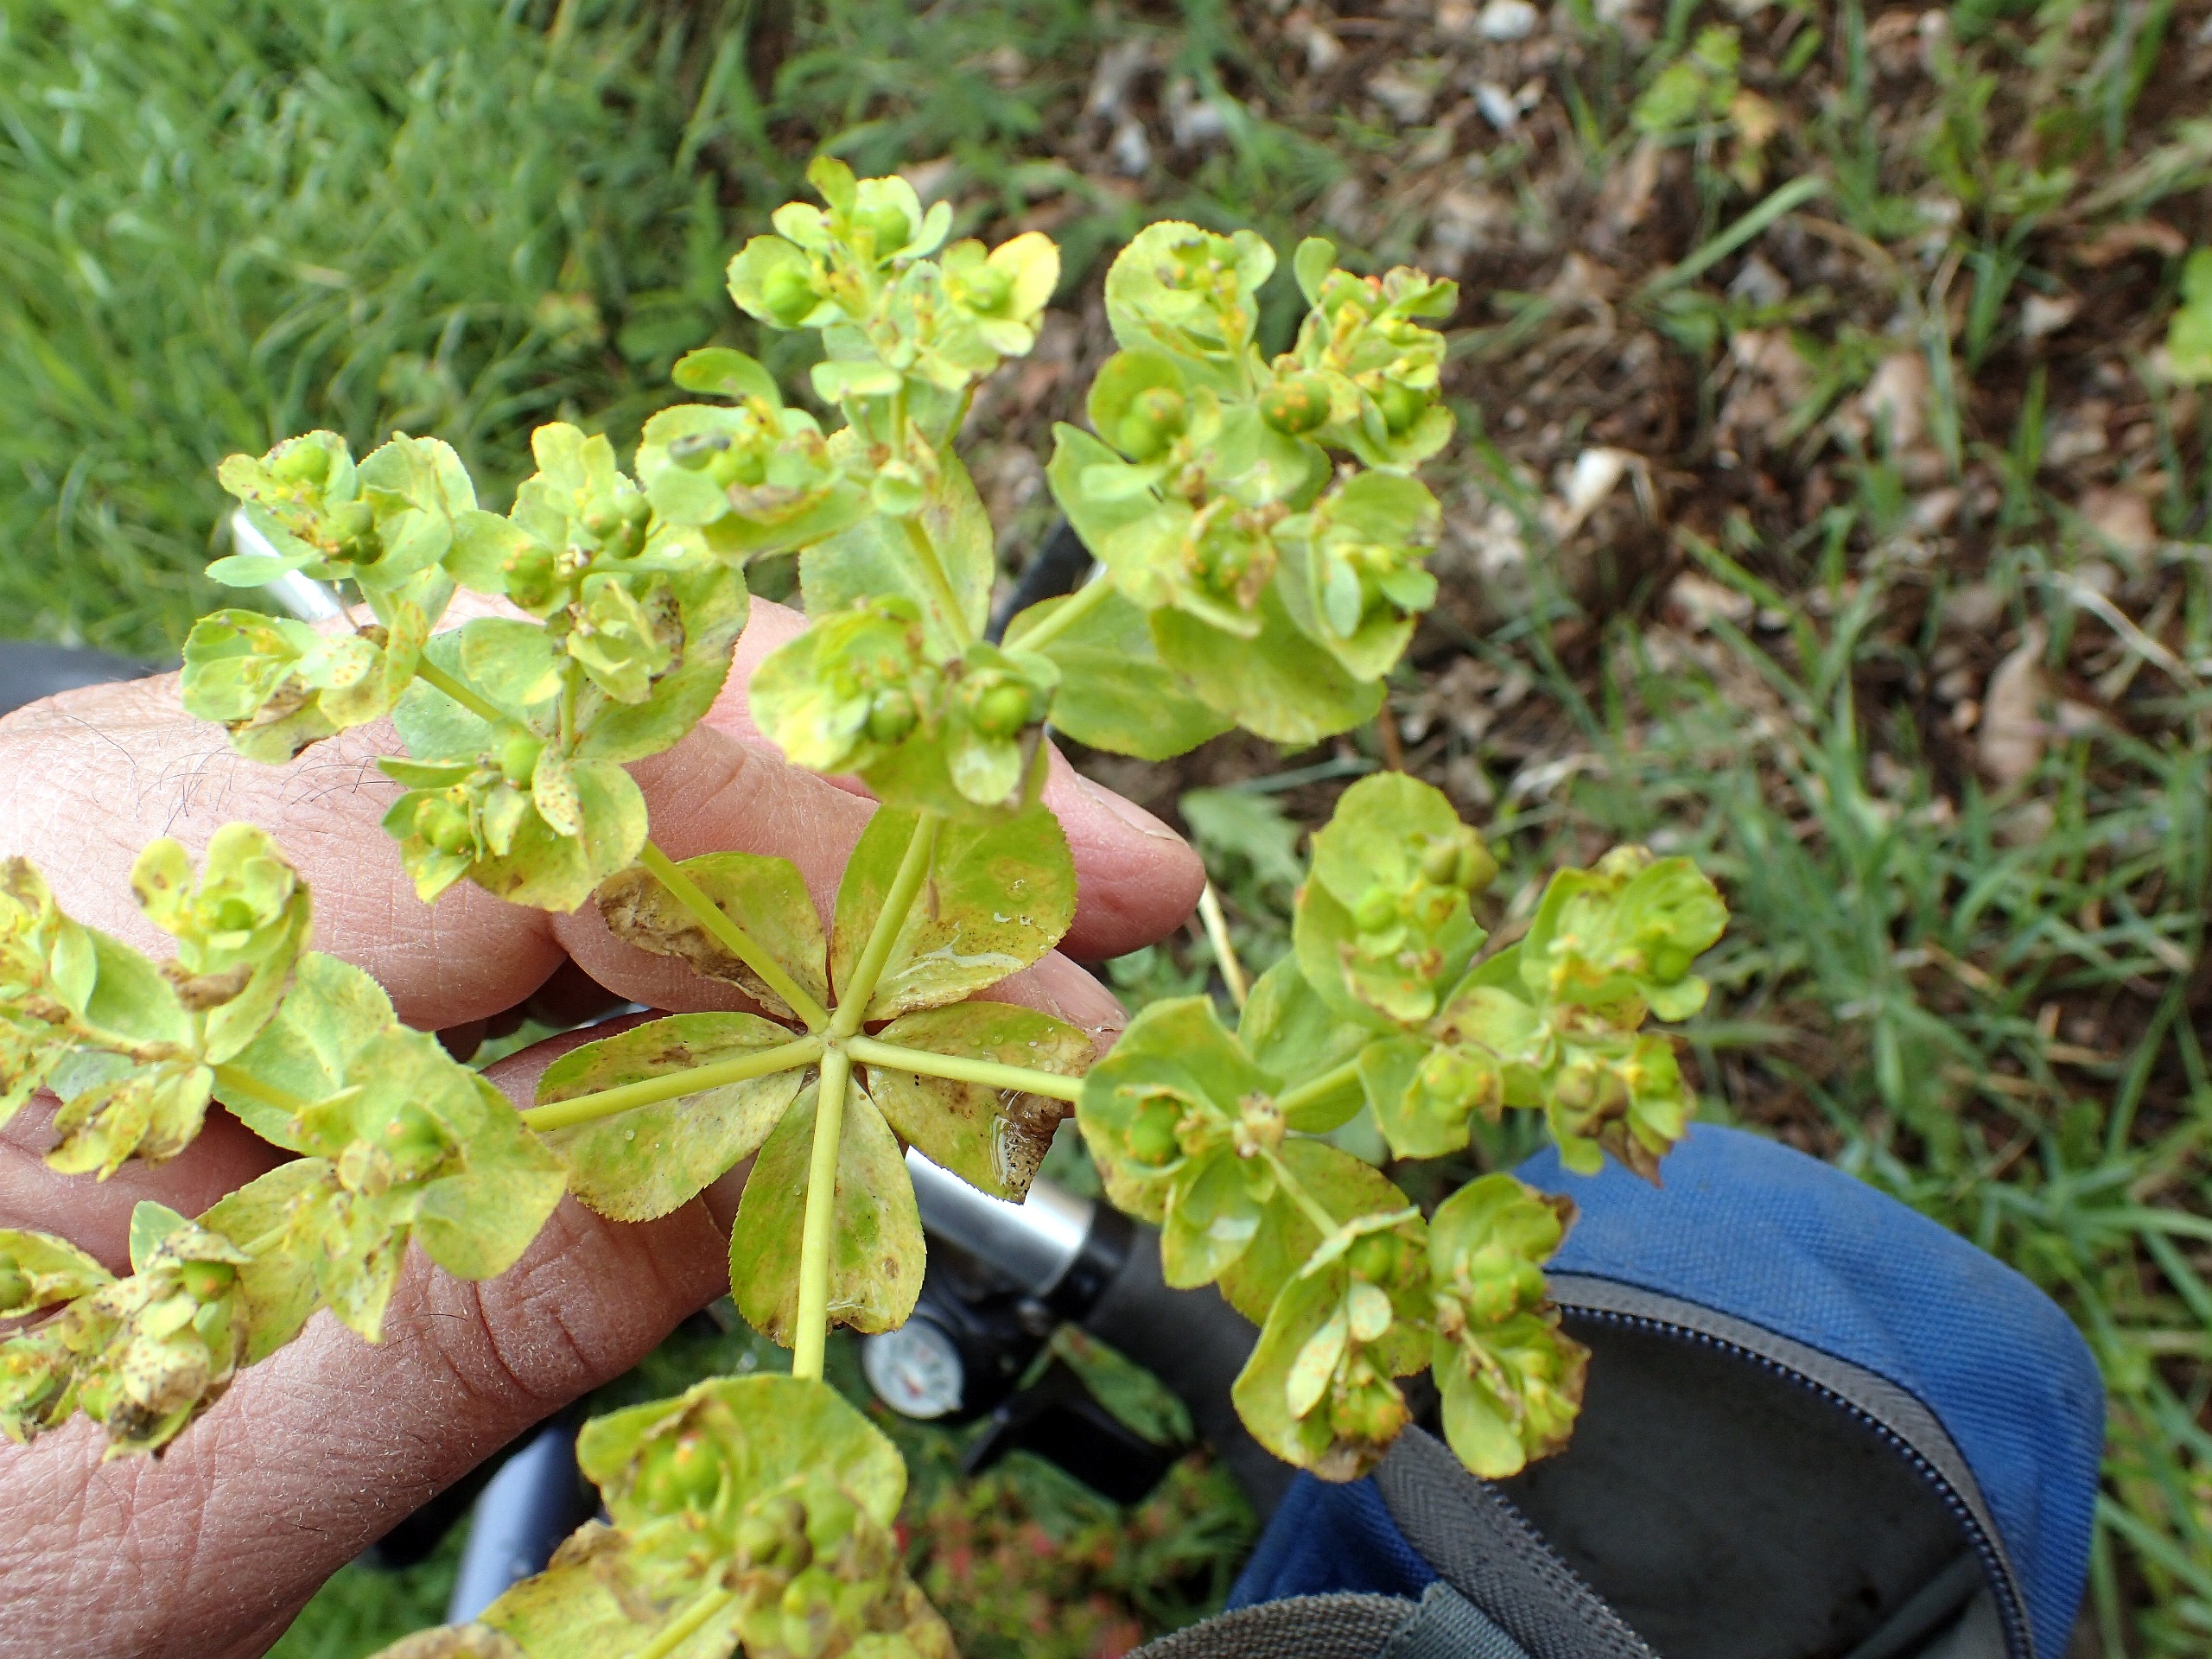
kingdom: Plantae
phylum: Tracheophyta
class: Magnoliopsida
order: Malpighiales
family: Euphorbiaceae
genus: Euphorbia
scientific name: Euphorbia helioscopia
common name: Skærm-vortemælk
